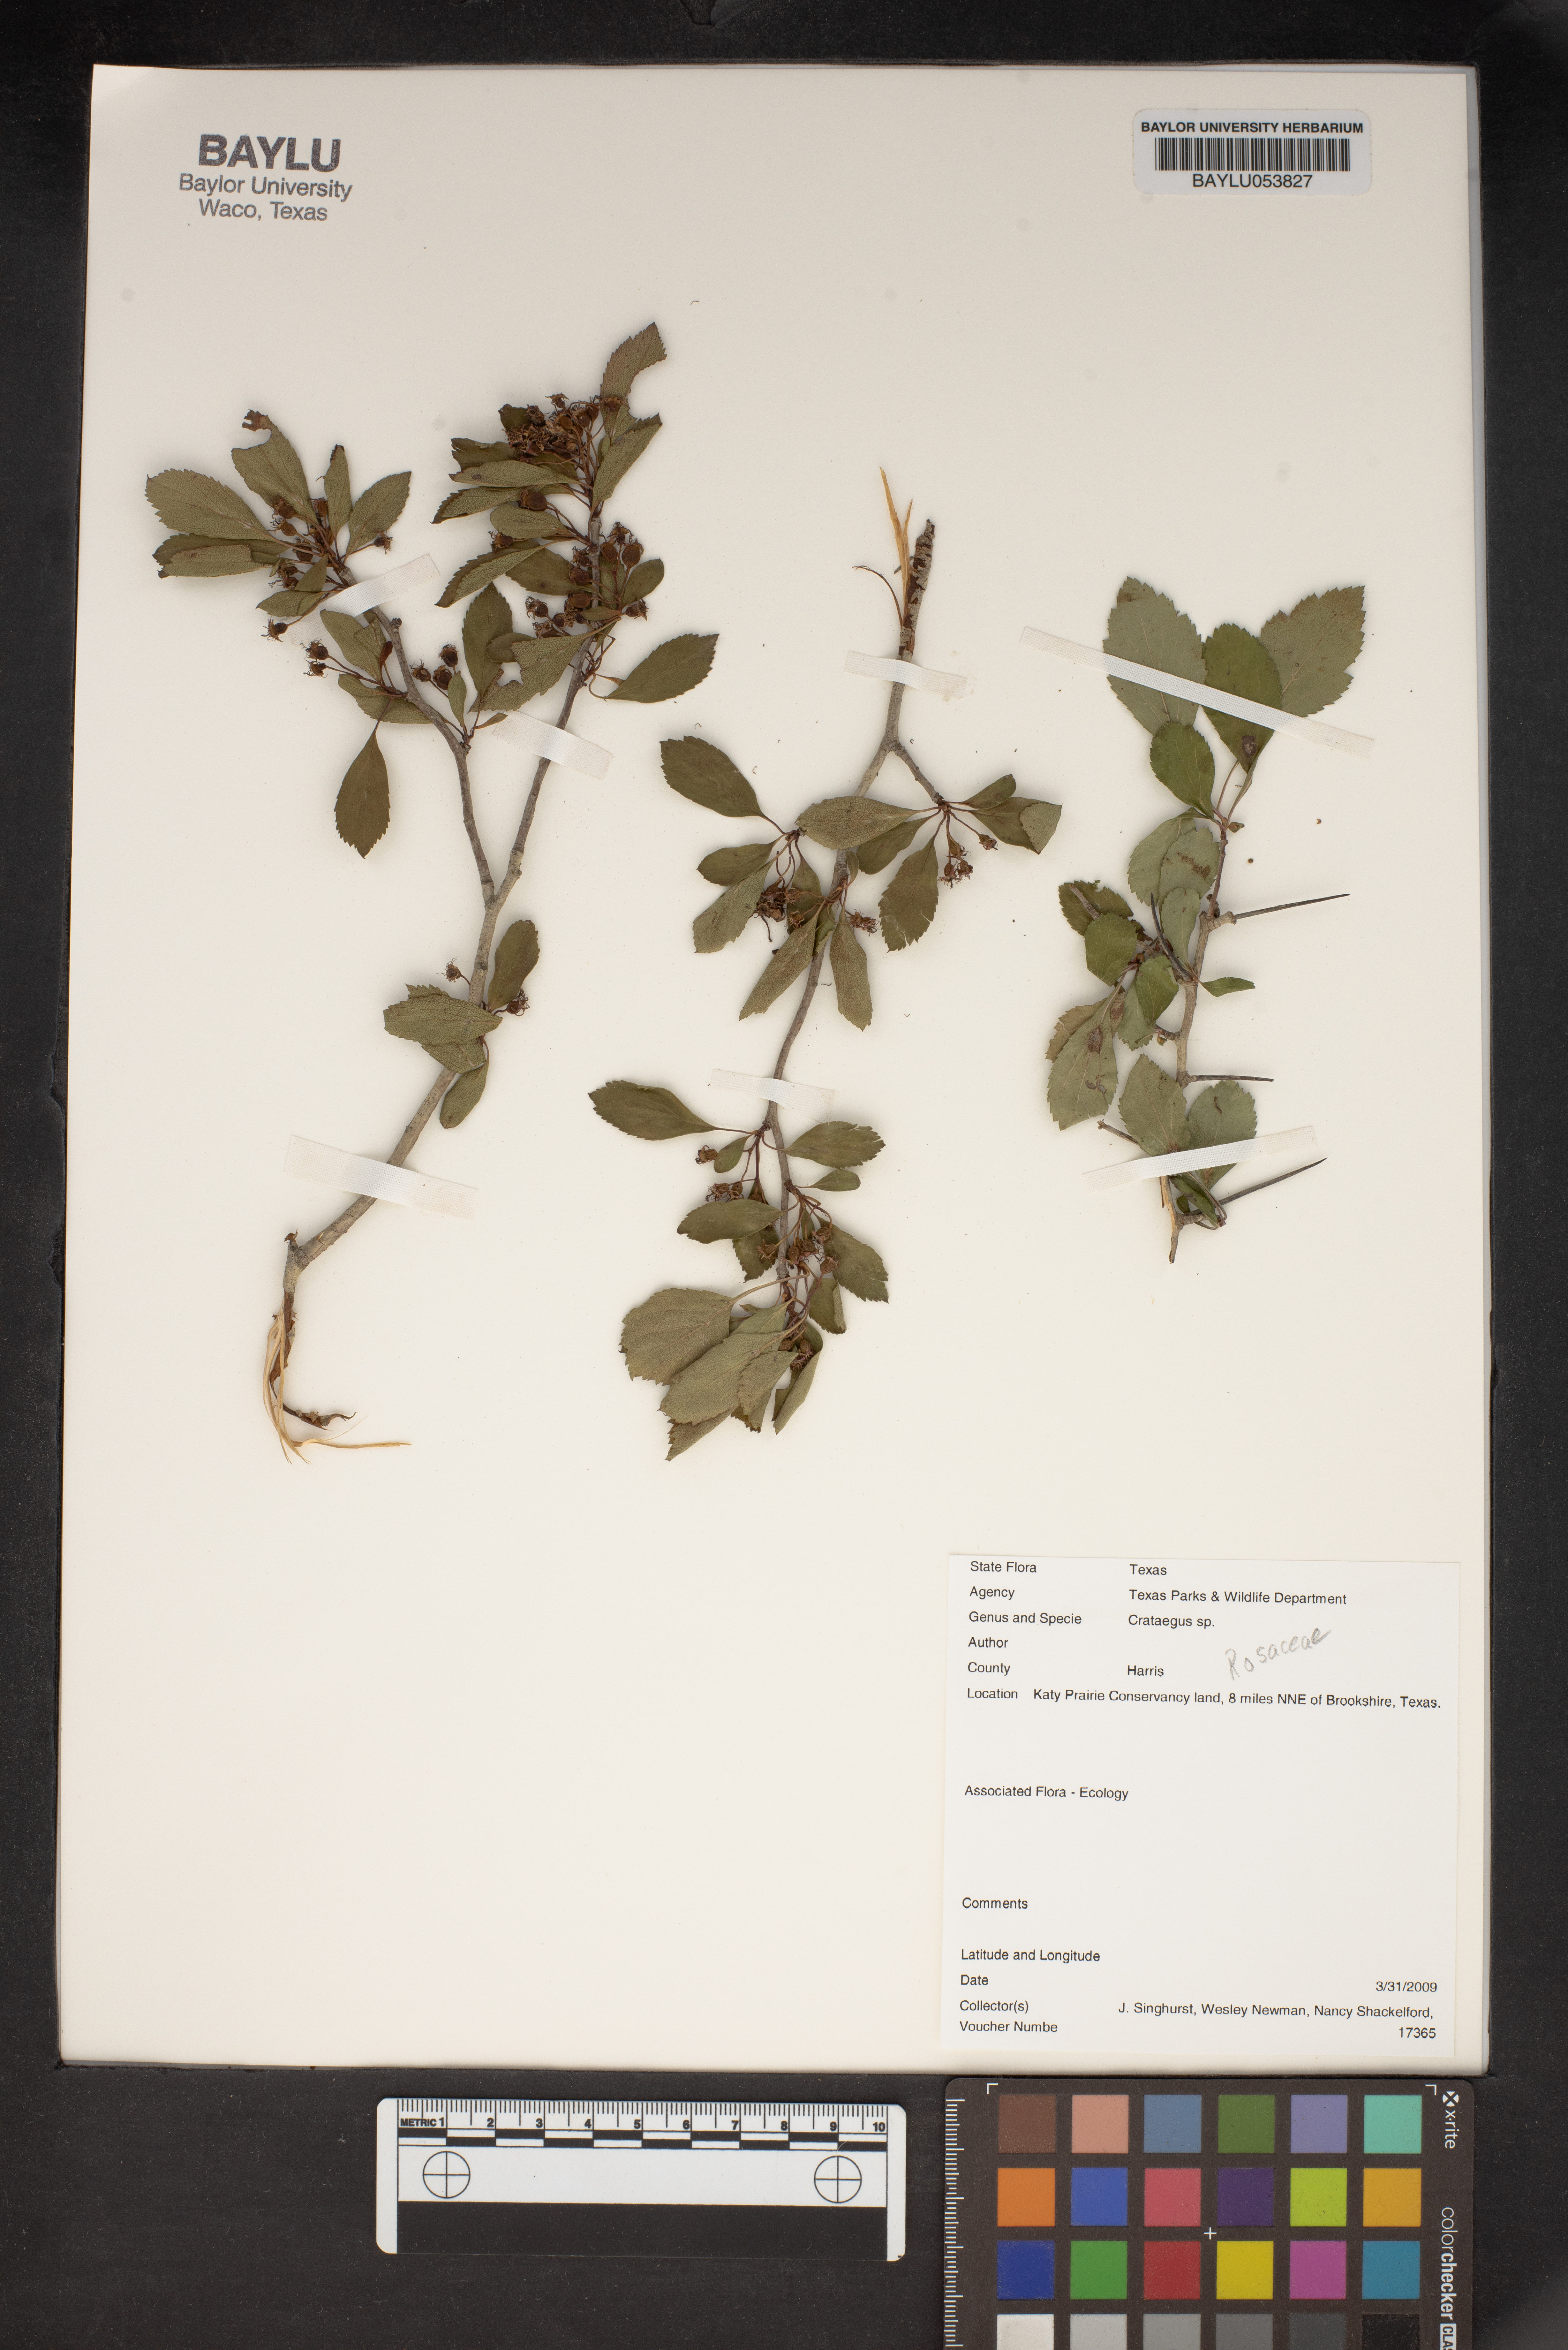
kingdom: Plantae
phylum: Tracheophyta
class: Magnoliopsida
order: Rosales
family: Rosaceae
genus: Crataegus
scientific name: Crataegus
